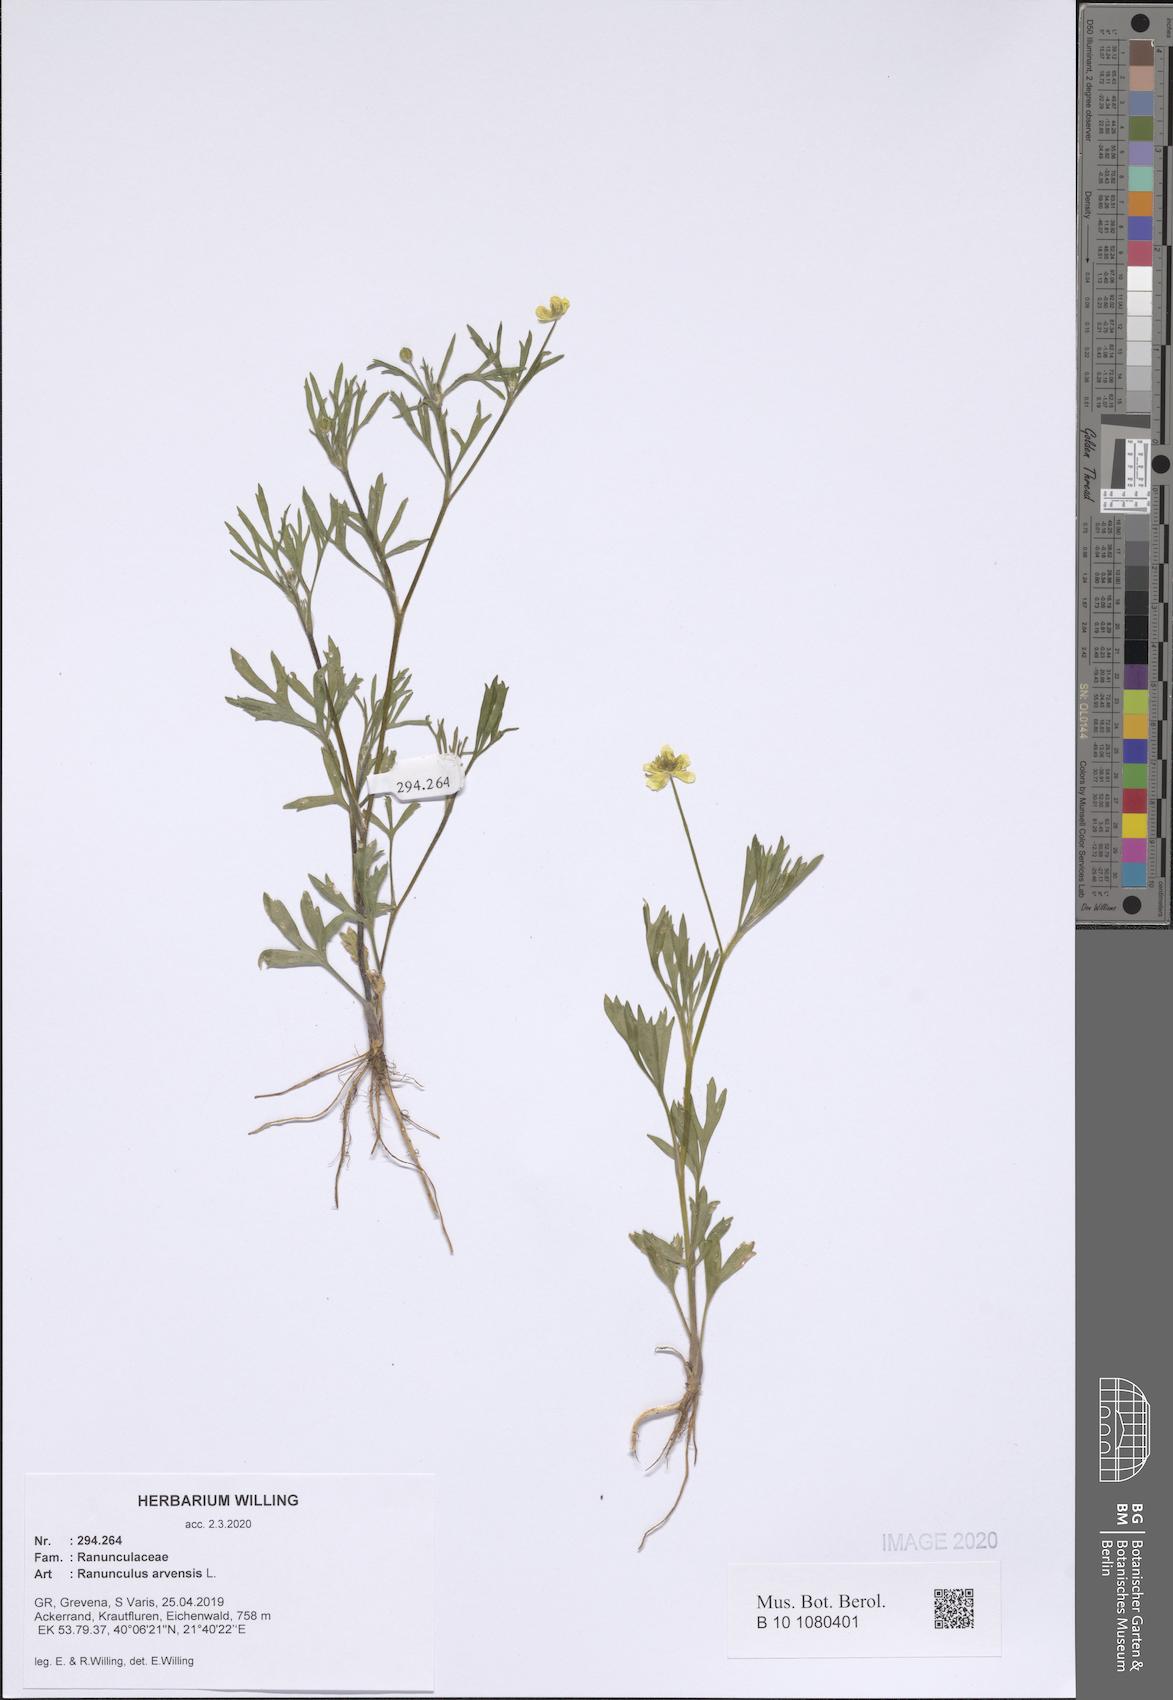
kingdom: Plantae
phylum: Tracheophyta
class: Magnoliopsida
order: Ranunculales
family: Ranunculaceae
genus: Ranunculus
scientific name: Ranunculus arvensis
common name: Corn buttercup
